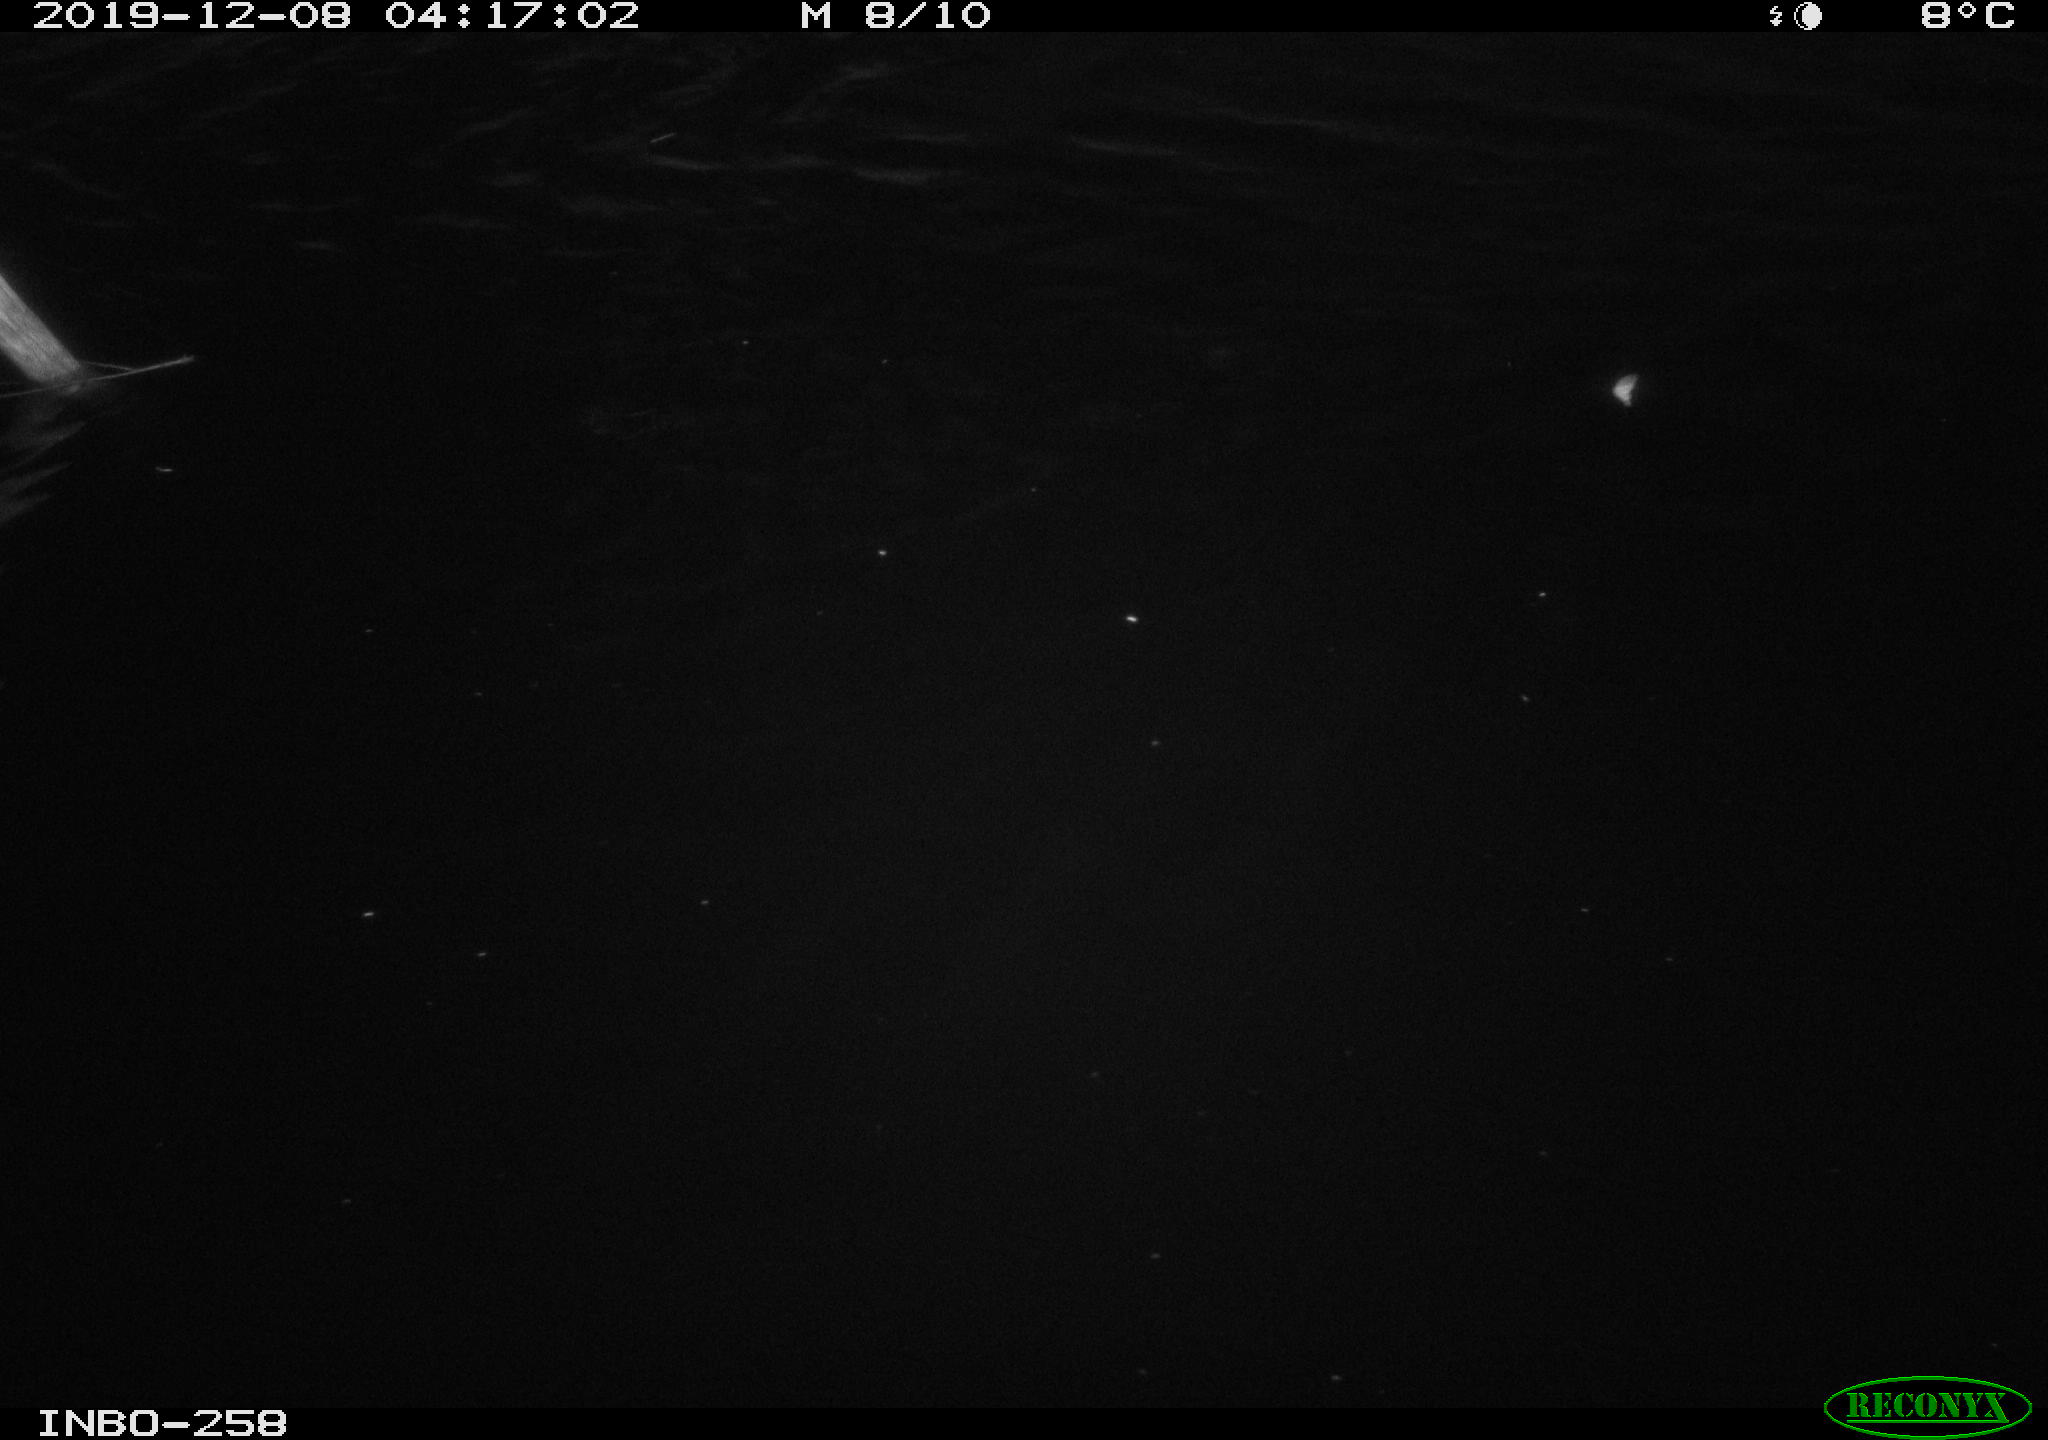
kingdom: Animalia
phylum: Chordata
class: Aves
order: Anseriformes
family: Anatidae
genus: Anas
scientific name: Anas platyrhynchos
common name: Mallard
